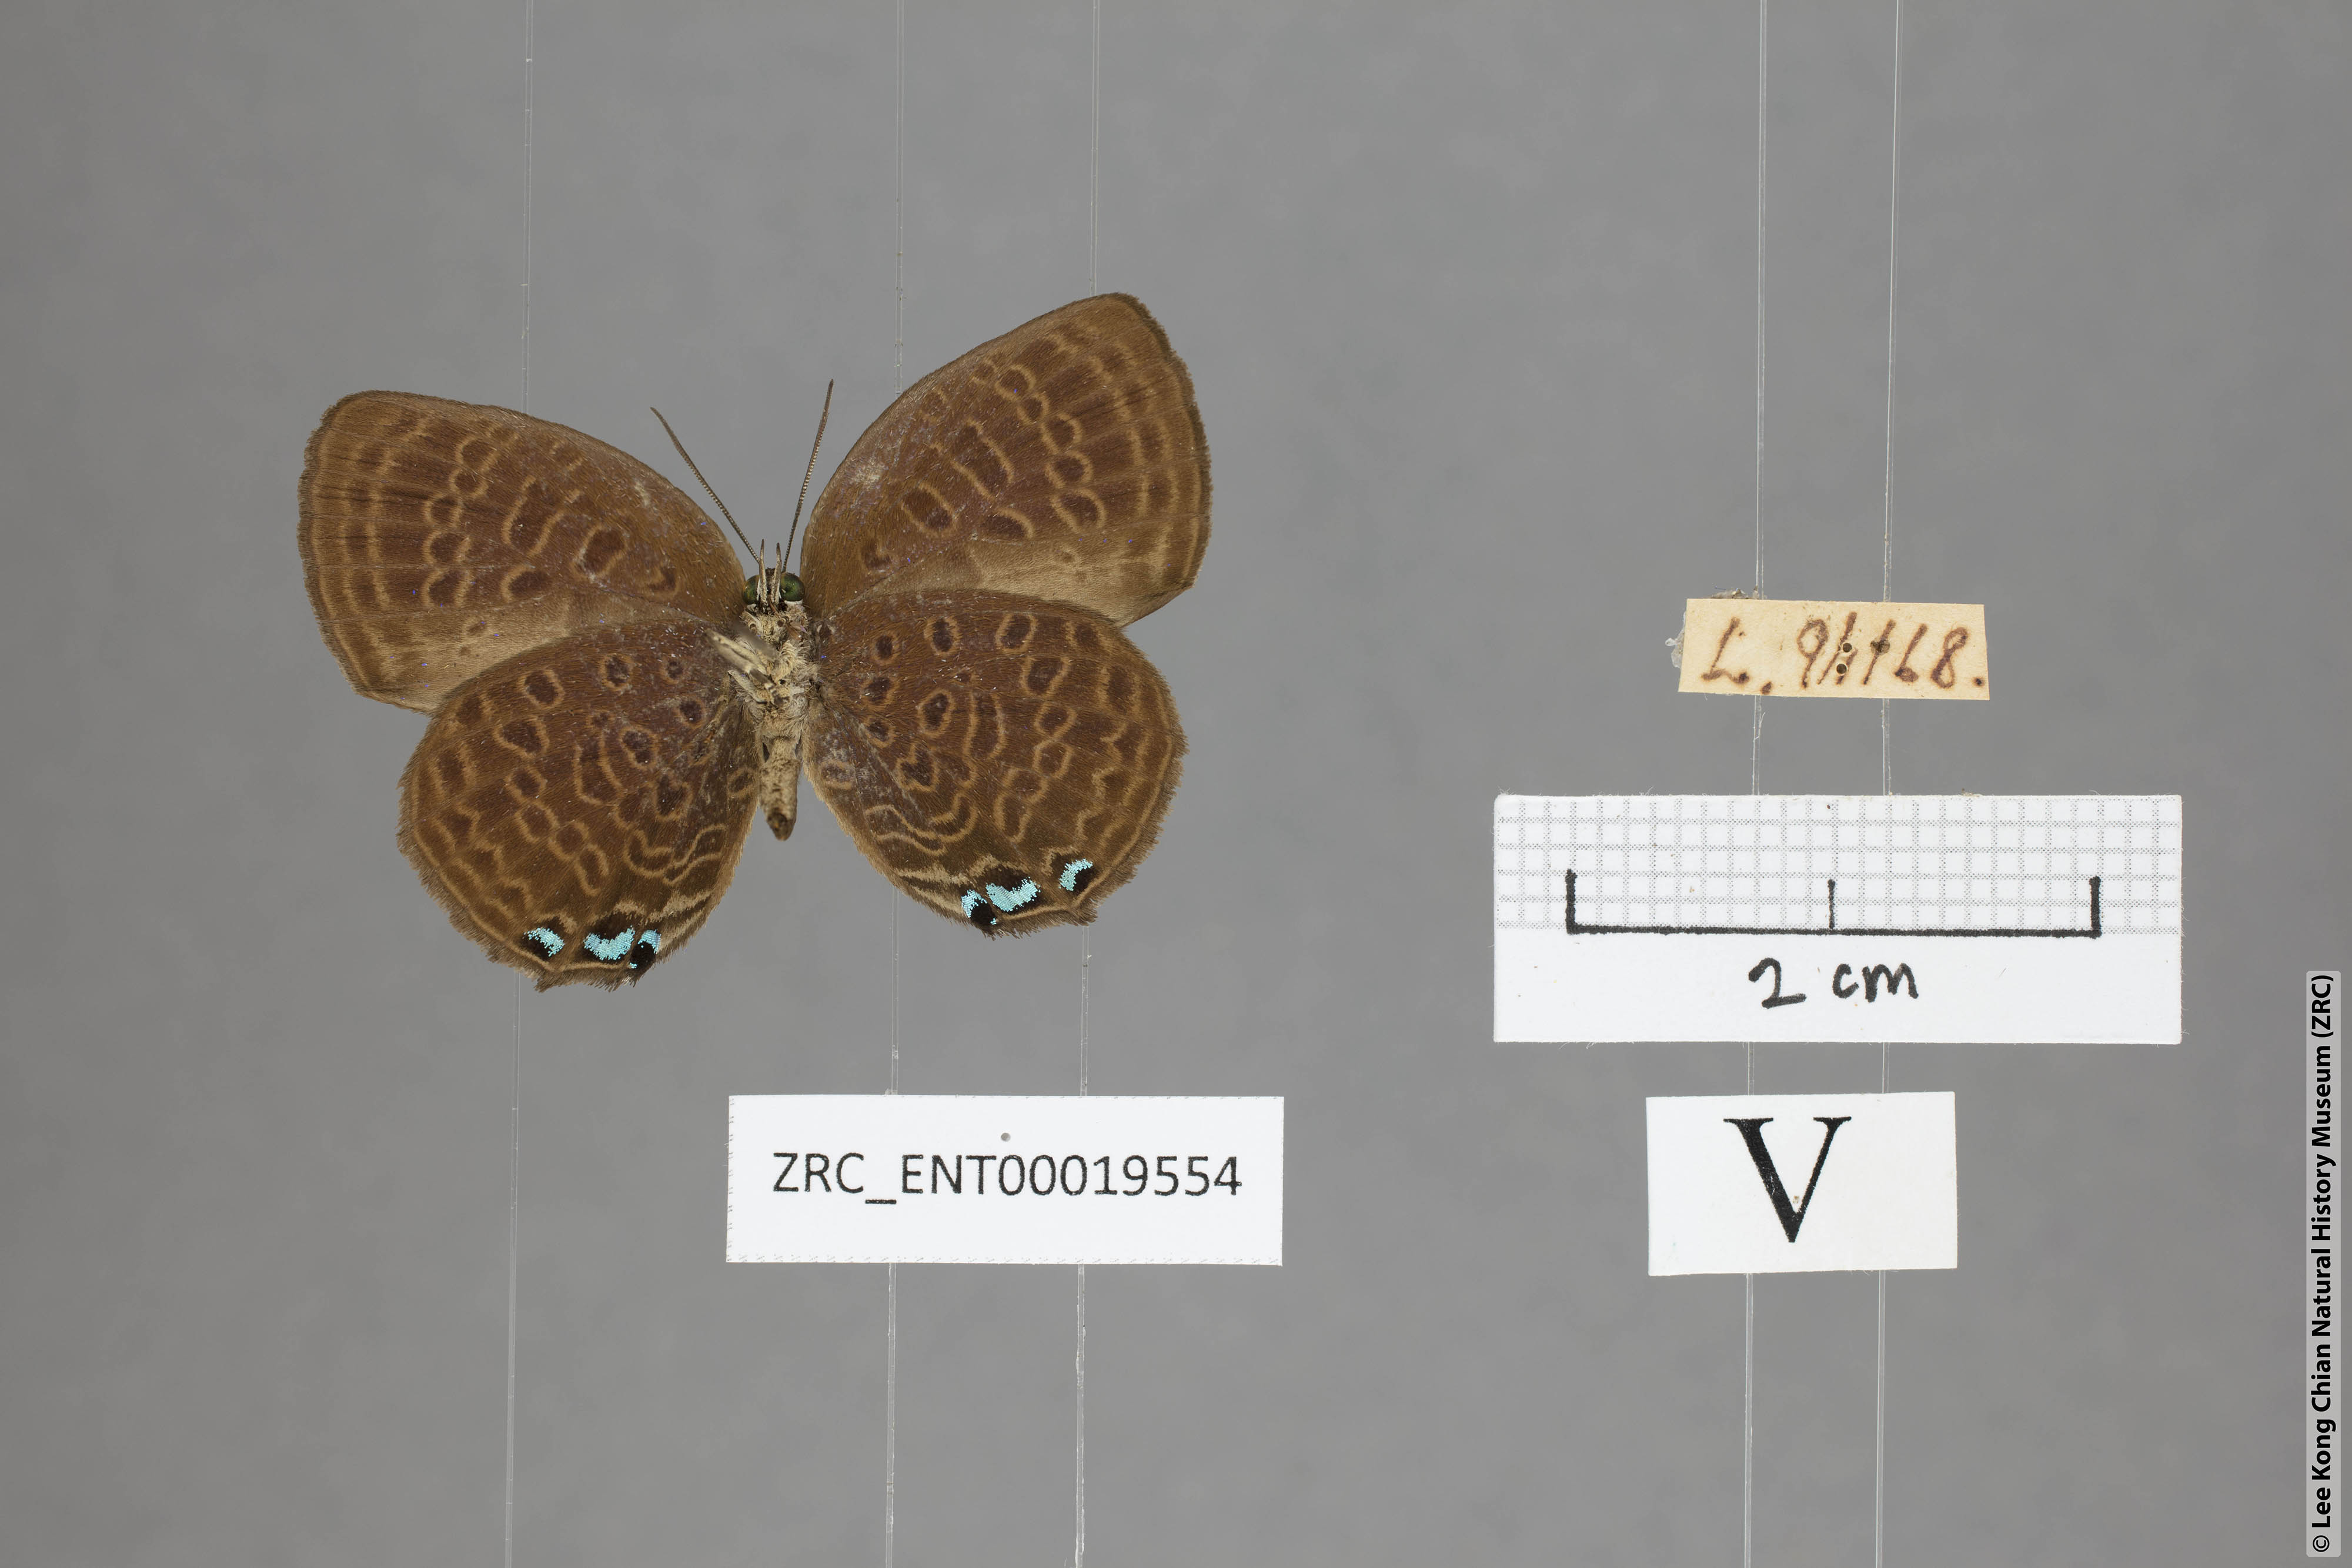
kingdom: Animalia
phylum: Arthropoda
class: Insecta
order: Lepidoptera
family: Lycaenidae
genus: Arhopala
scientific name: Arhopala hypomuta
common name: Violet oakblue
